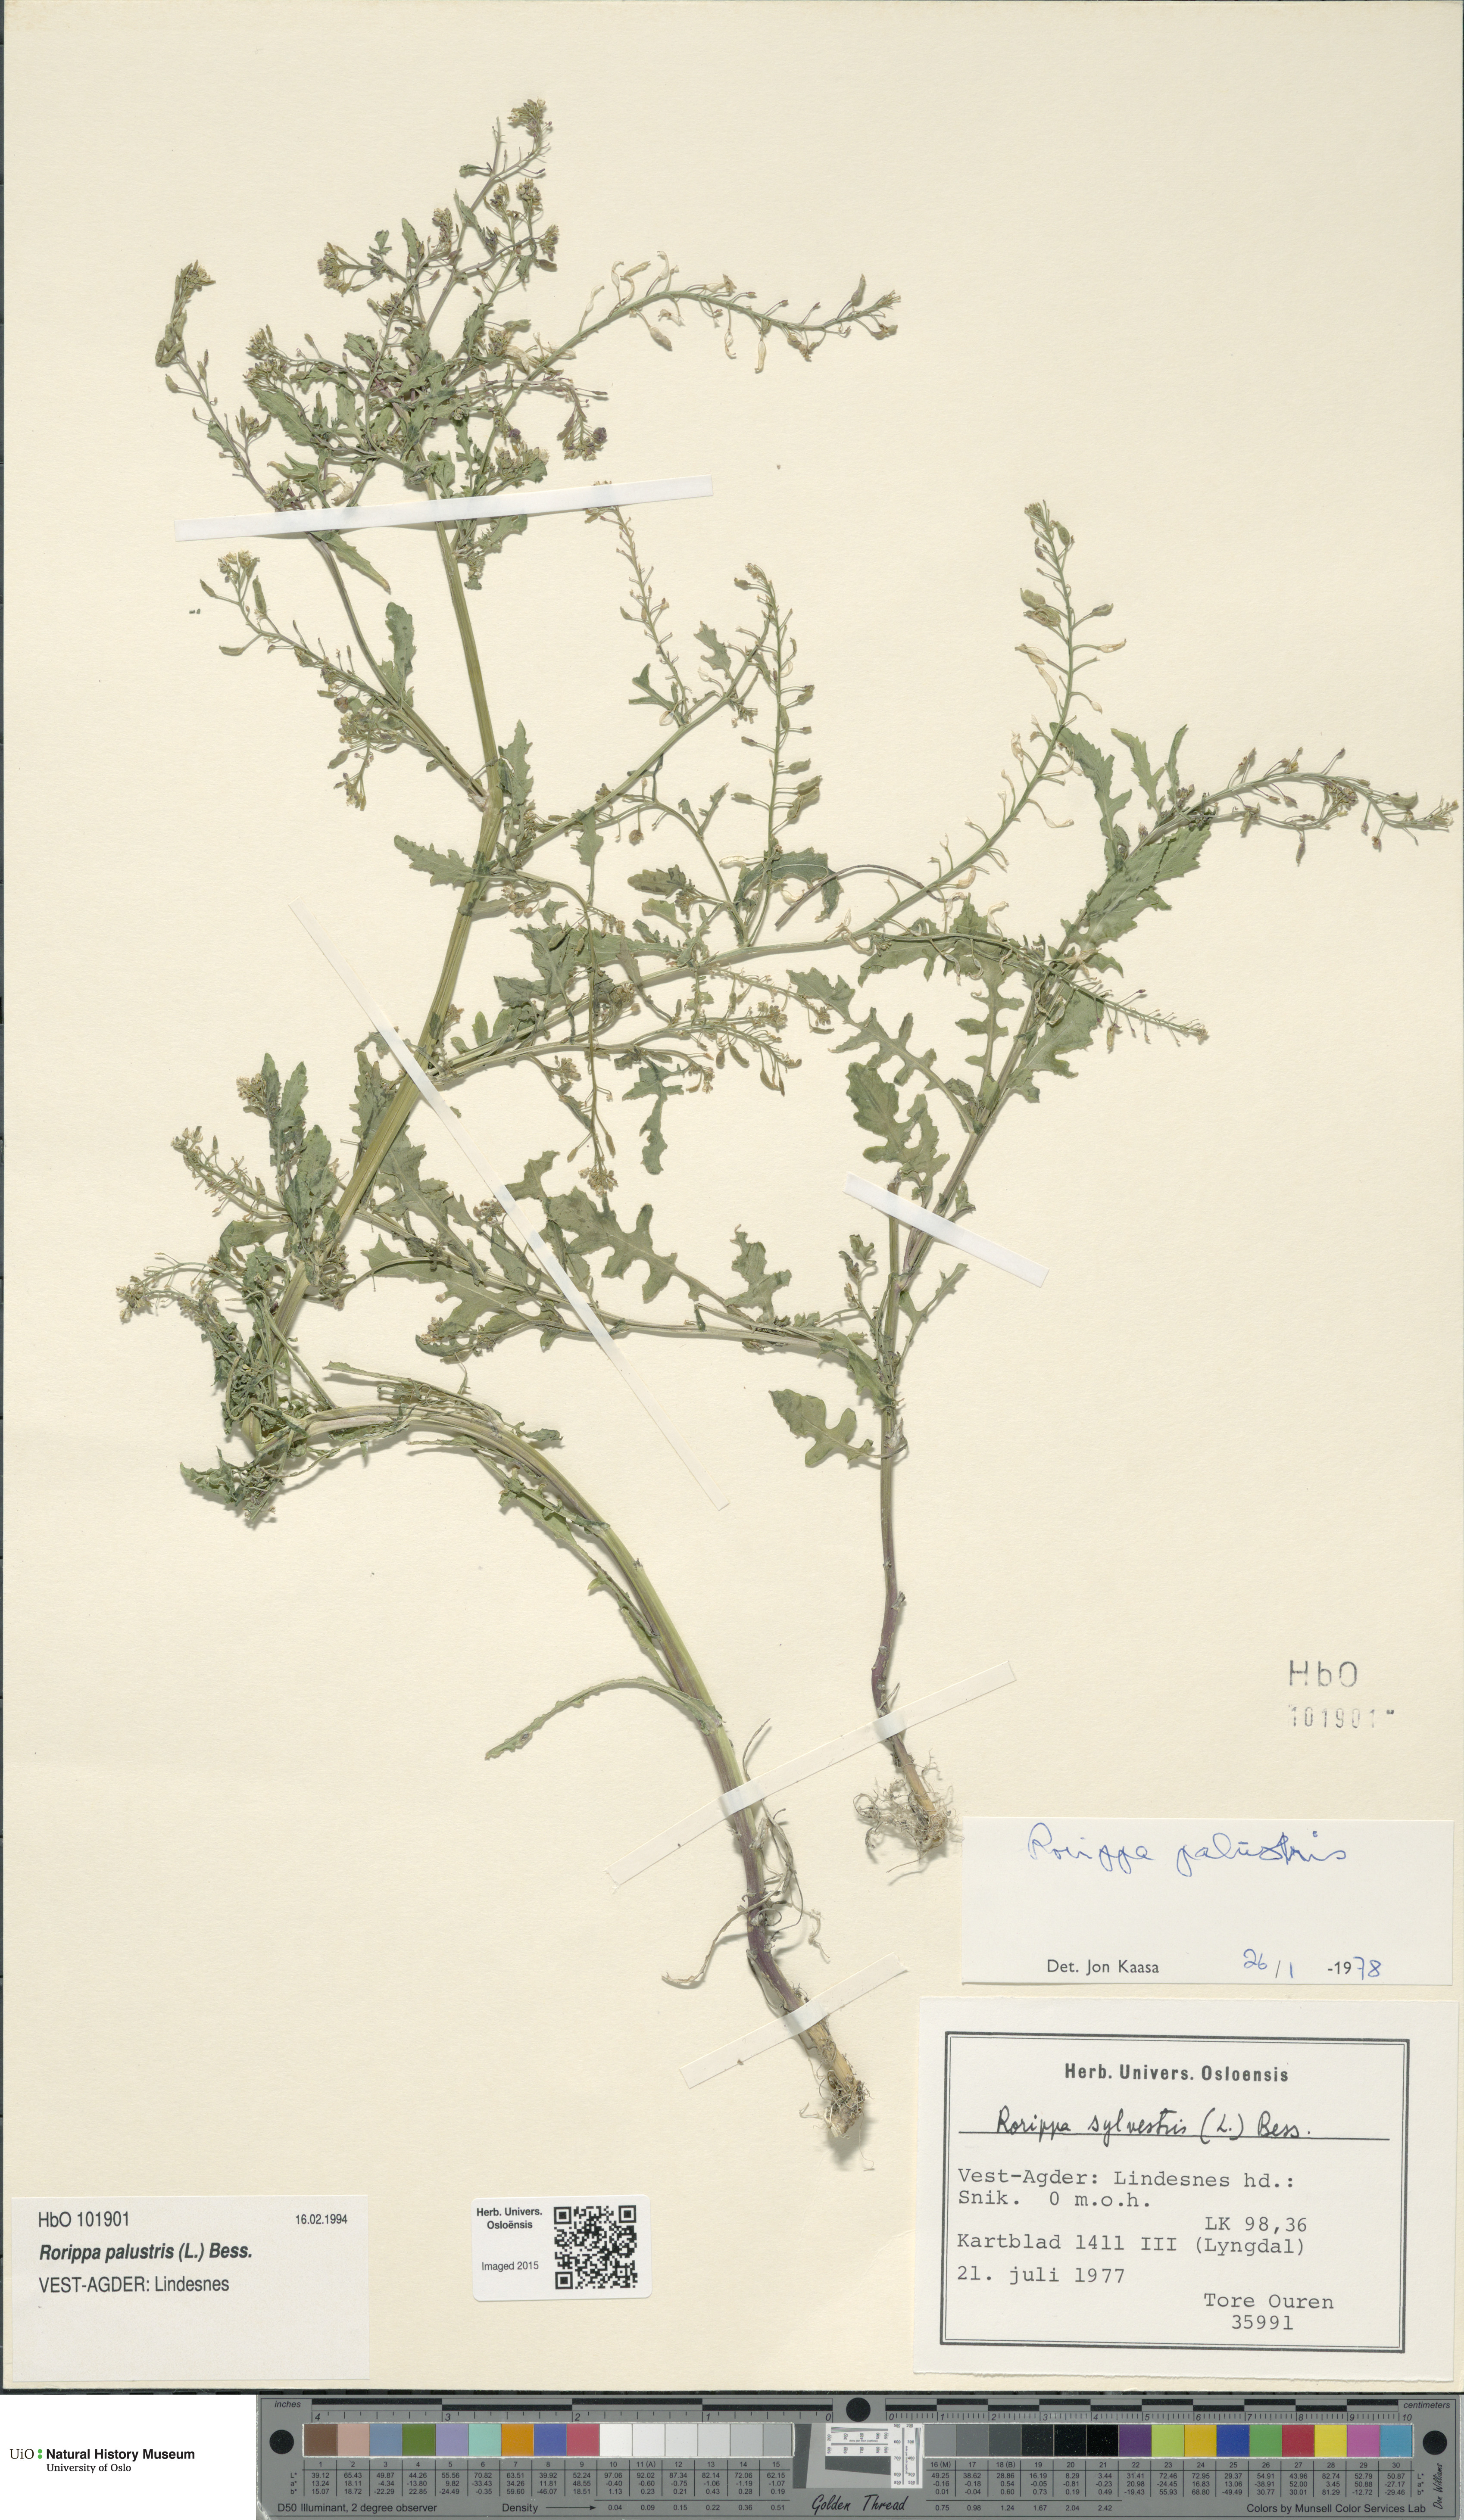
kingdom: Plantae
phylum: Tracheophyta
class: Magnoliopsida
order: Brassicales
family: Brassicaceae
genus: Rorippa
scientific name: Rorippa palustris
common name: Marsh yellow-cress
